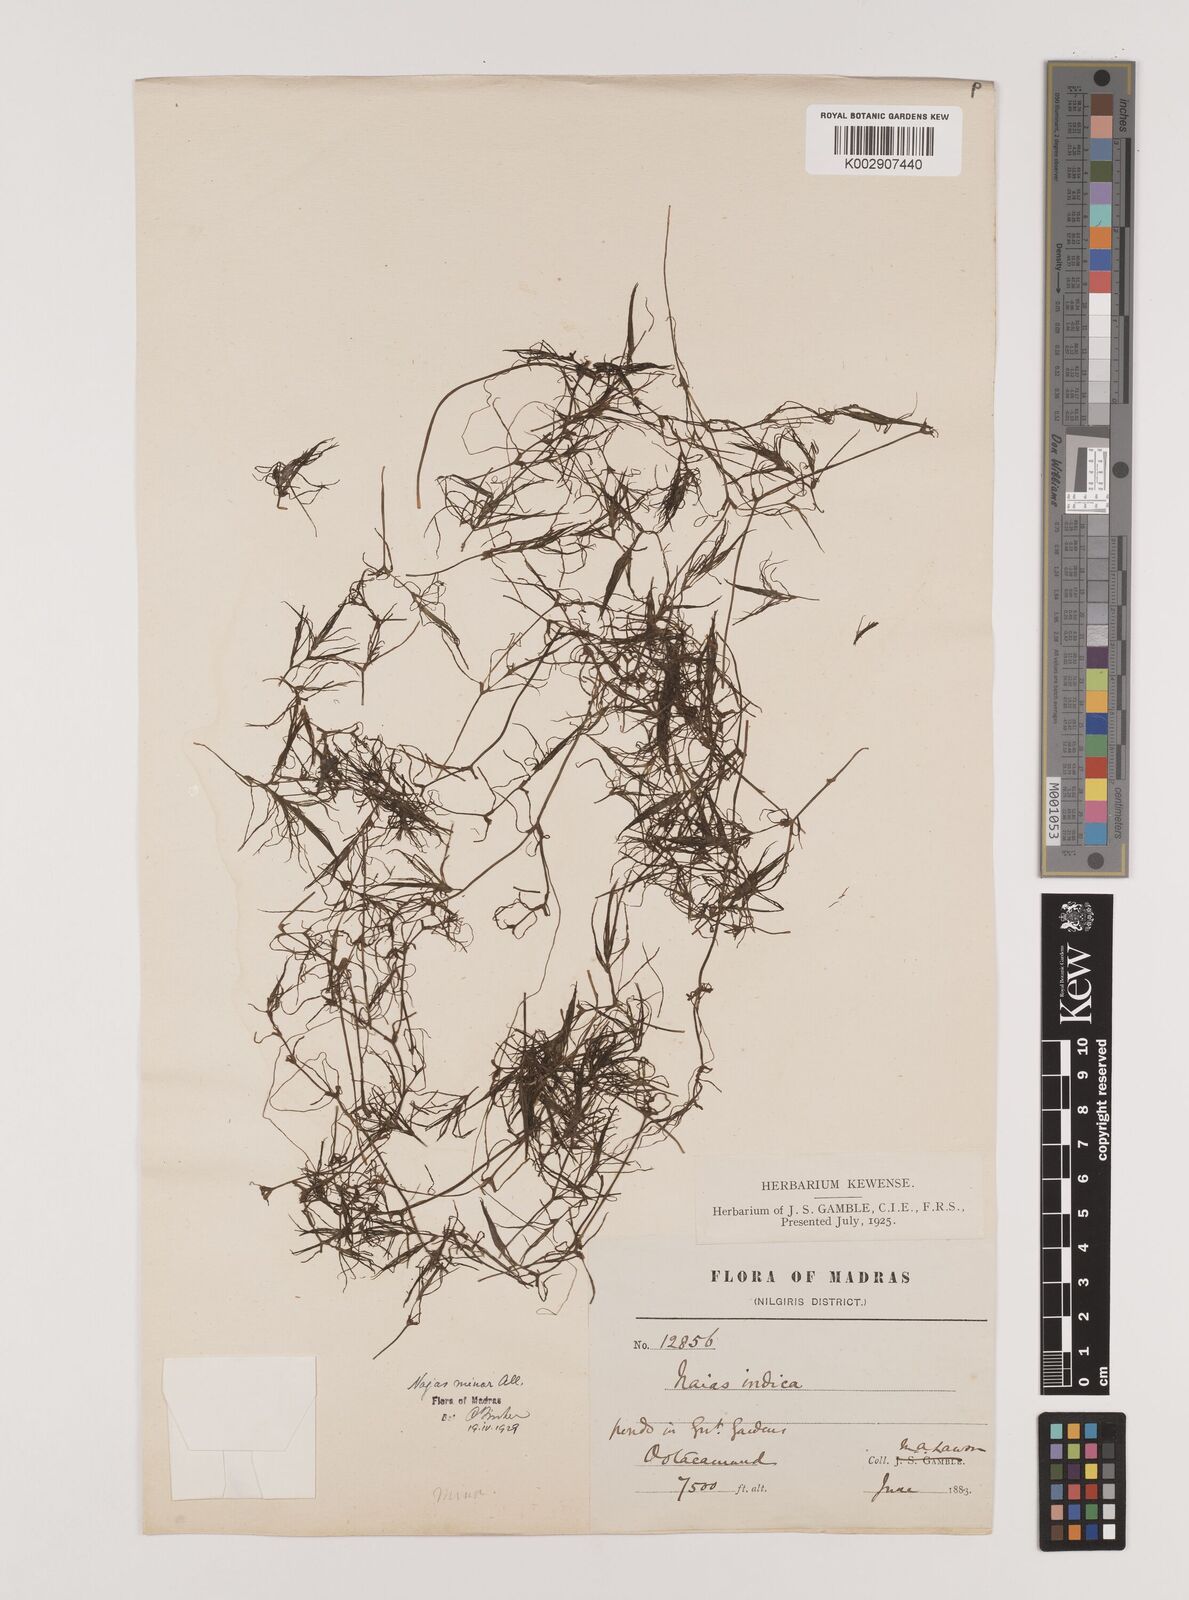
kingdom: Plantae
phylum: Tracheophyta
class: Liliopsida
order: Alismatales
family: Hydrocharitaceae
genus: Najas
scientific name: Najas indica
